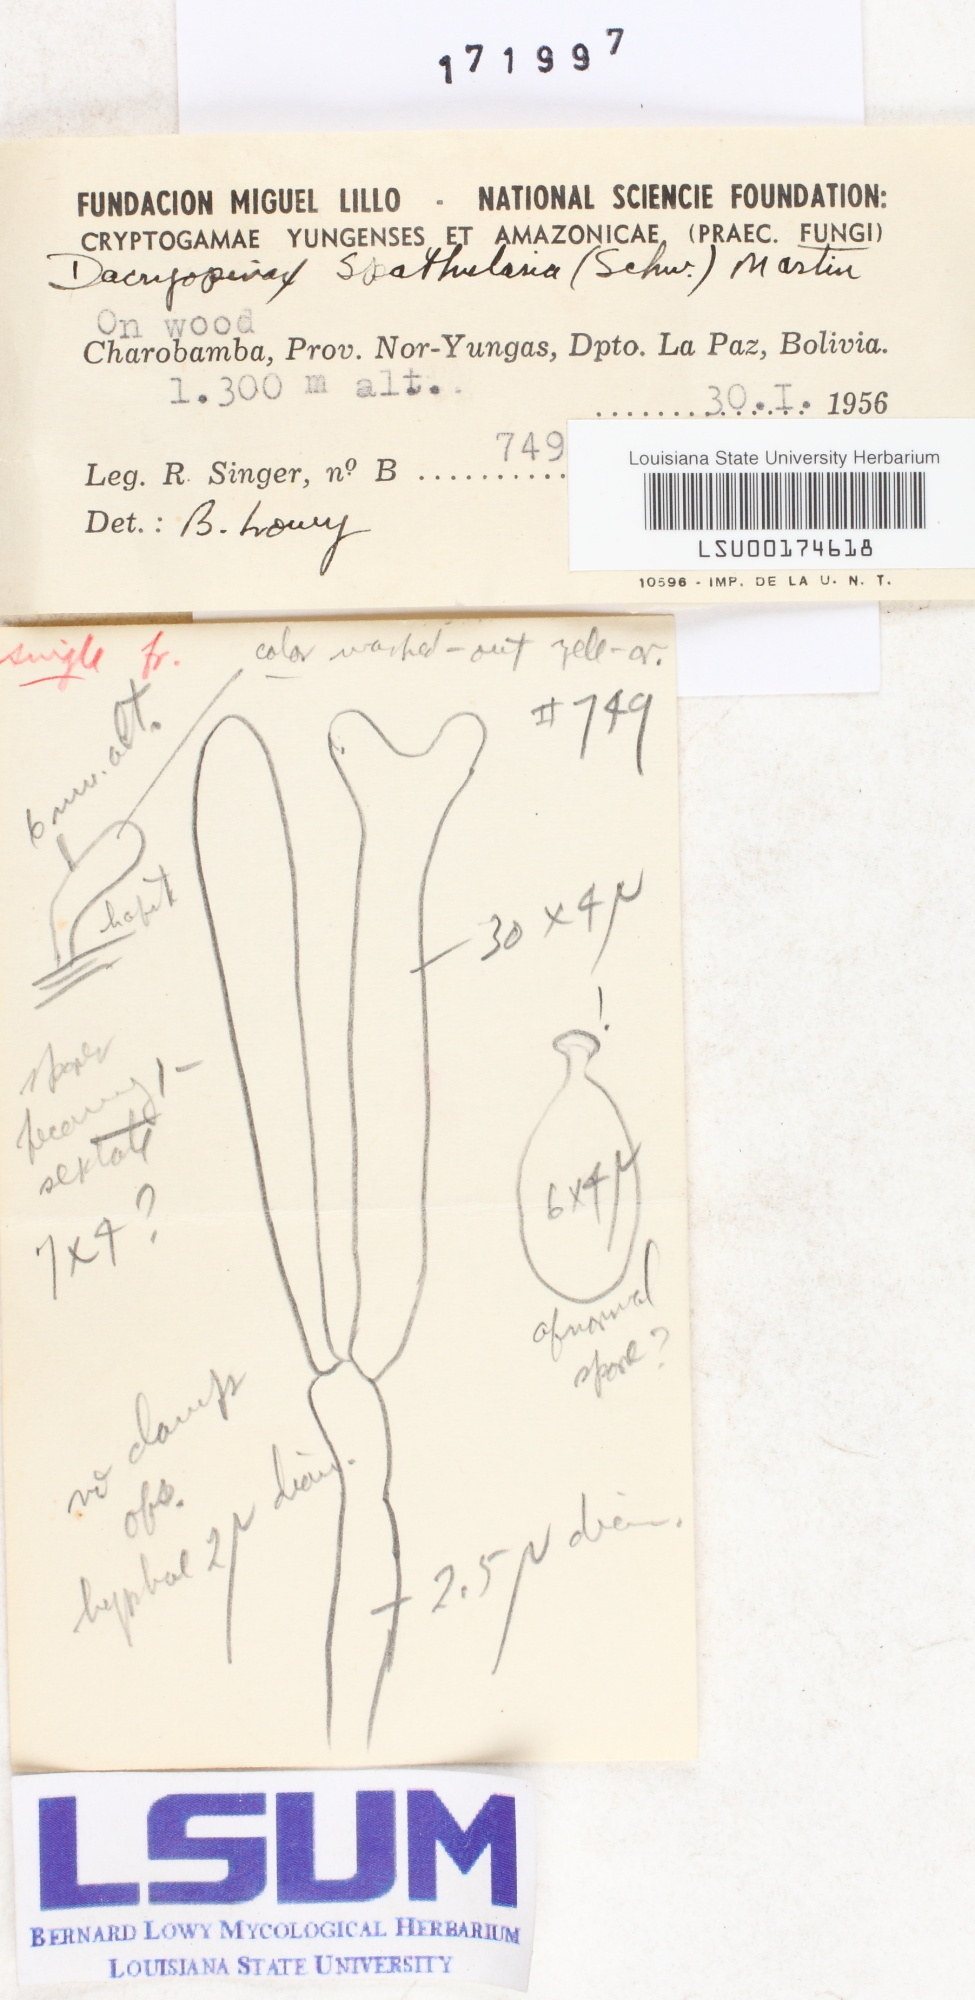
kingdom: Fungi
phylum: Basidiomycota
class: Dacrymycetes
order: Dacrymycetales
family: Dacrymycetaceae
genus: Dacrymyces
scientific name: Dacrymyces spathularius
